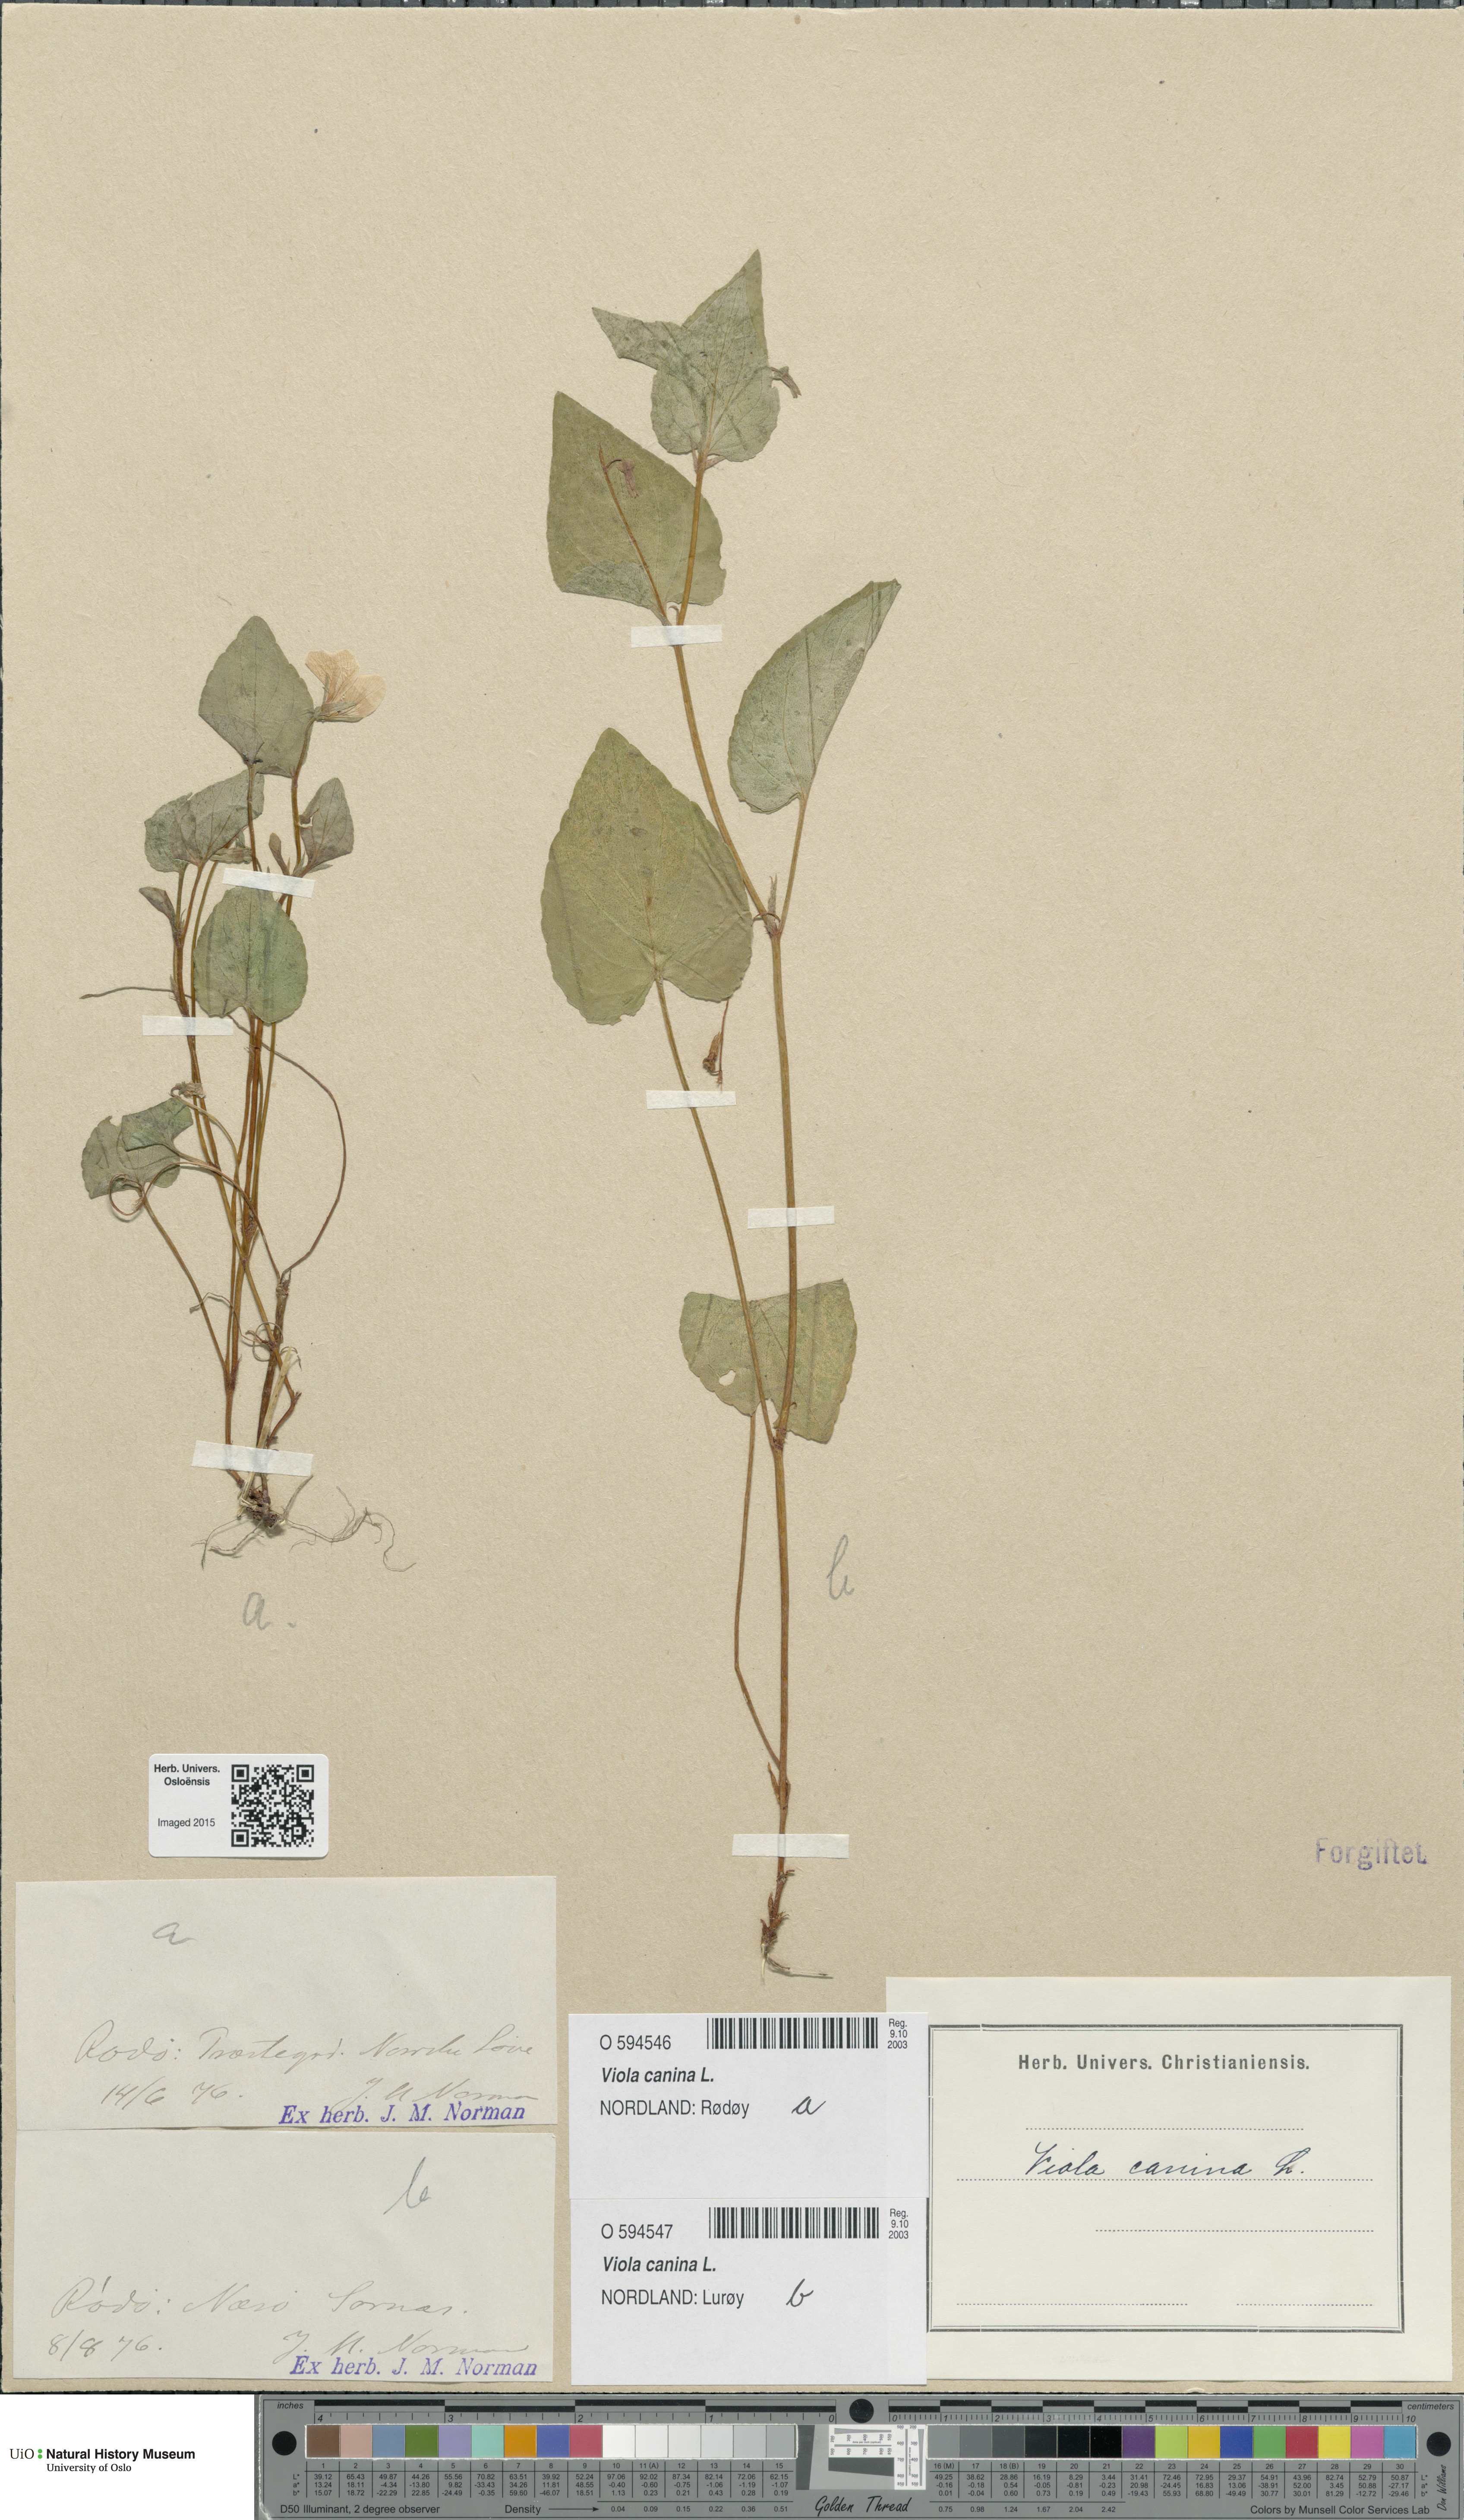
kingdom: Plantae
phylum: Tracheophyta
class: Magnoliopsida
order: Malpighiales
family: Violaceae
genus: Viola
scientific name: Viola canina
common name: Heath dog-violet
